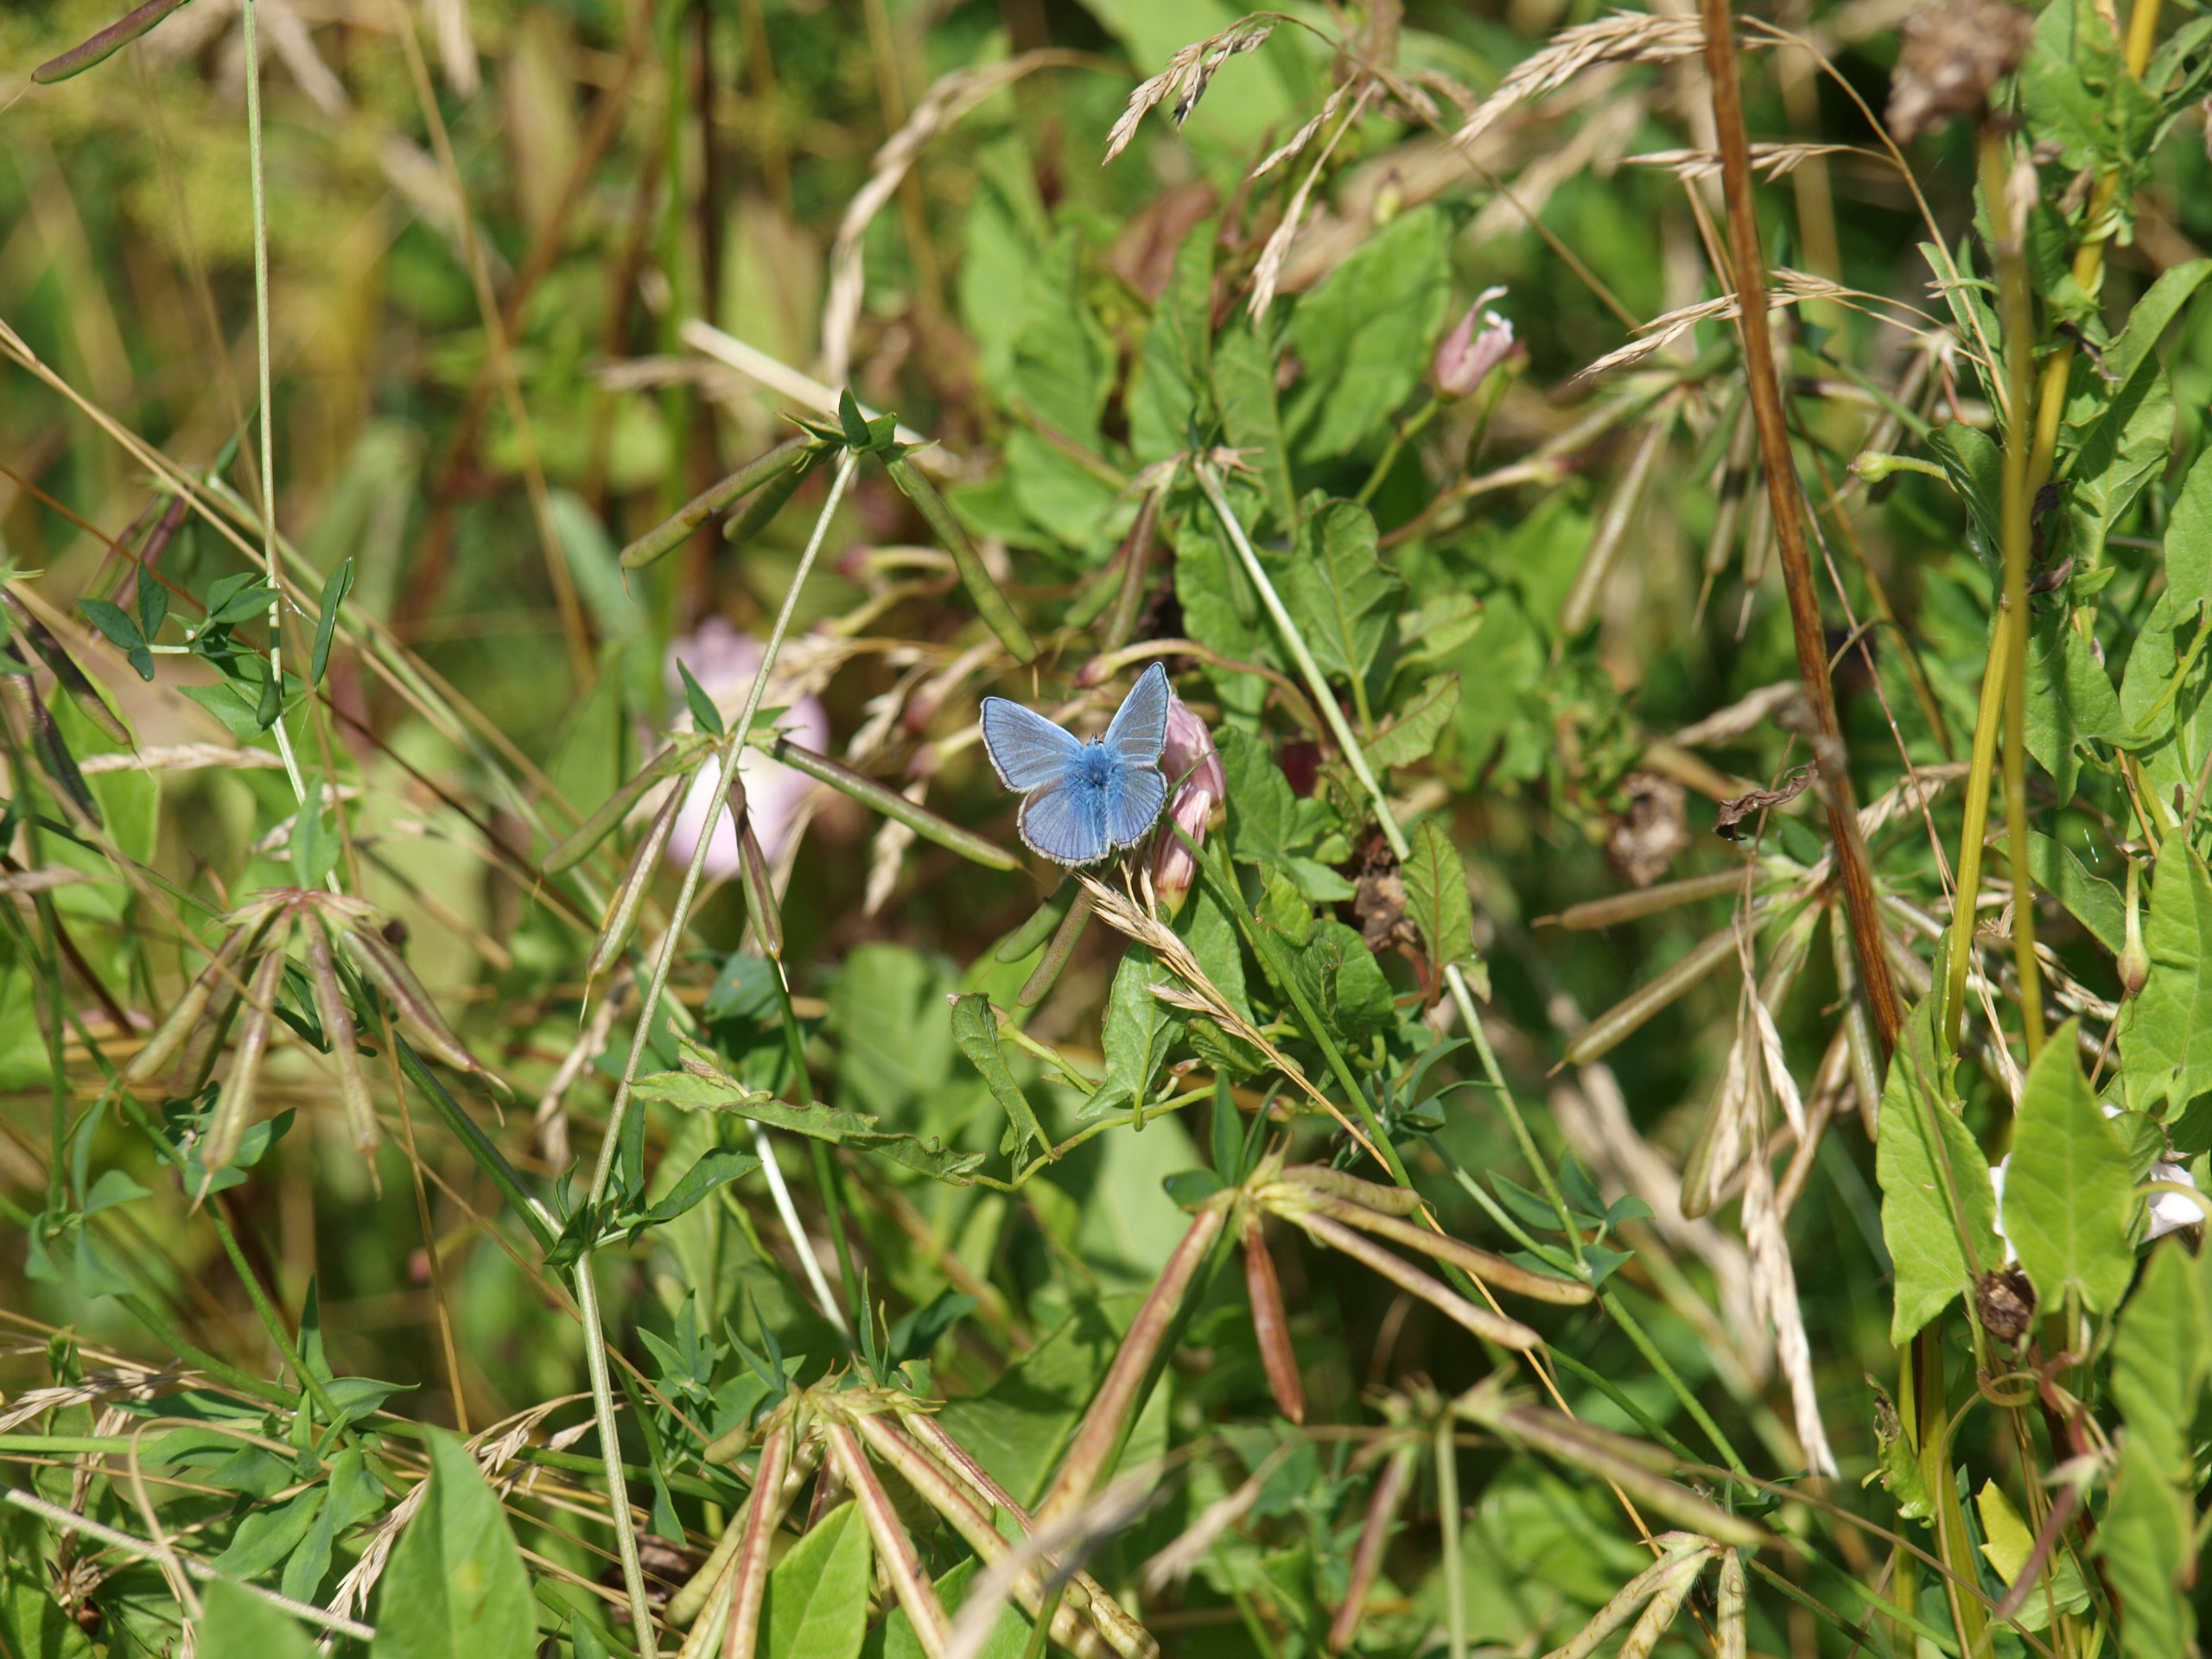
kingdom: Animalia
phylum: Arthropoda
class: Insecta
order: Lepidoptera
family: Lycaenidae
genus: Polyommatus
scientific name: Polyommatus icarus
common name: Almindelig blåfugl
